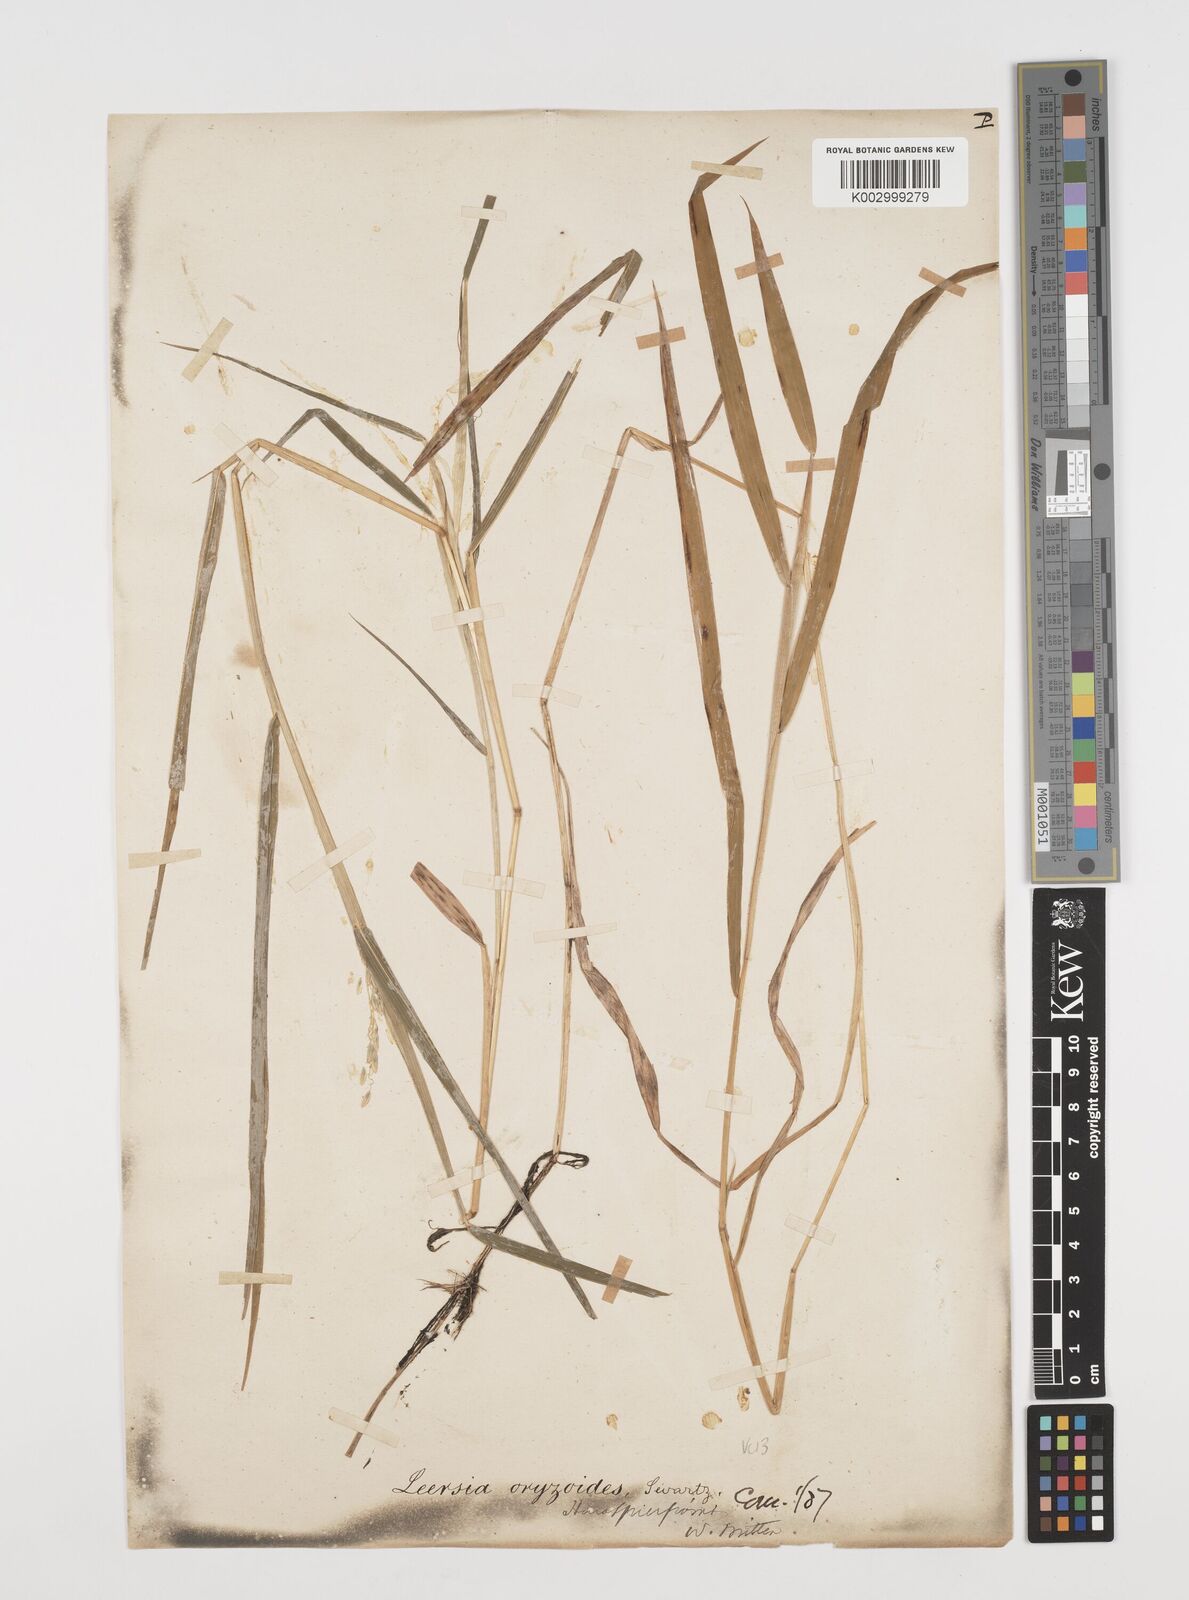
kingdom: Plantae
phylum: Tracheophyta
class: Liliopsida
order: Poales
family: Poaceae
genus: Leersia
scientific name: Leersia oryzoides
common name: Cut-grass
